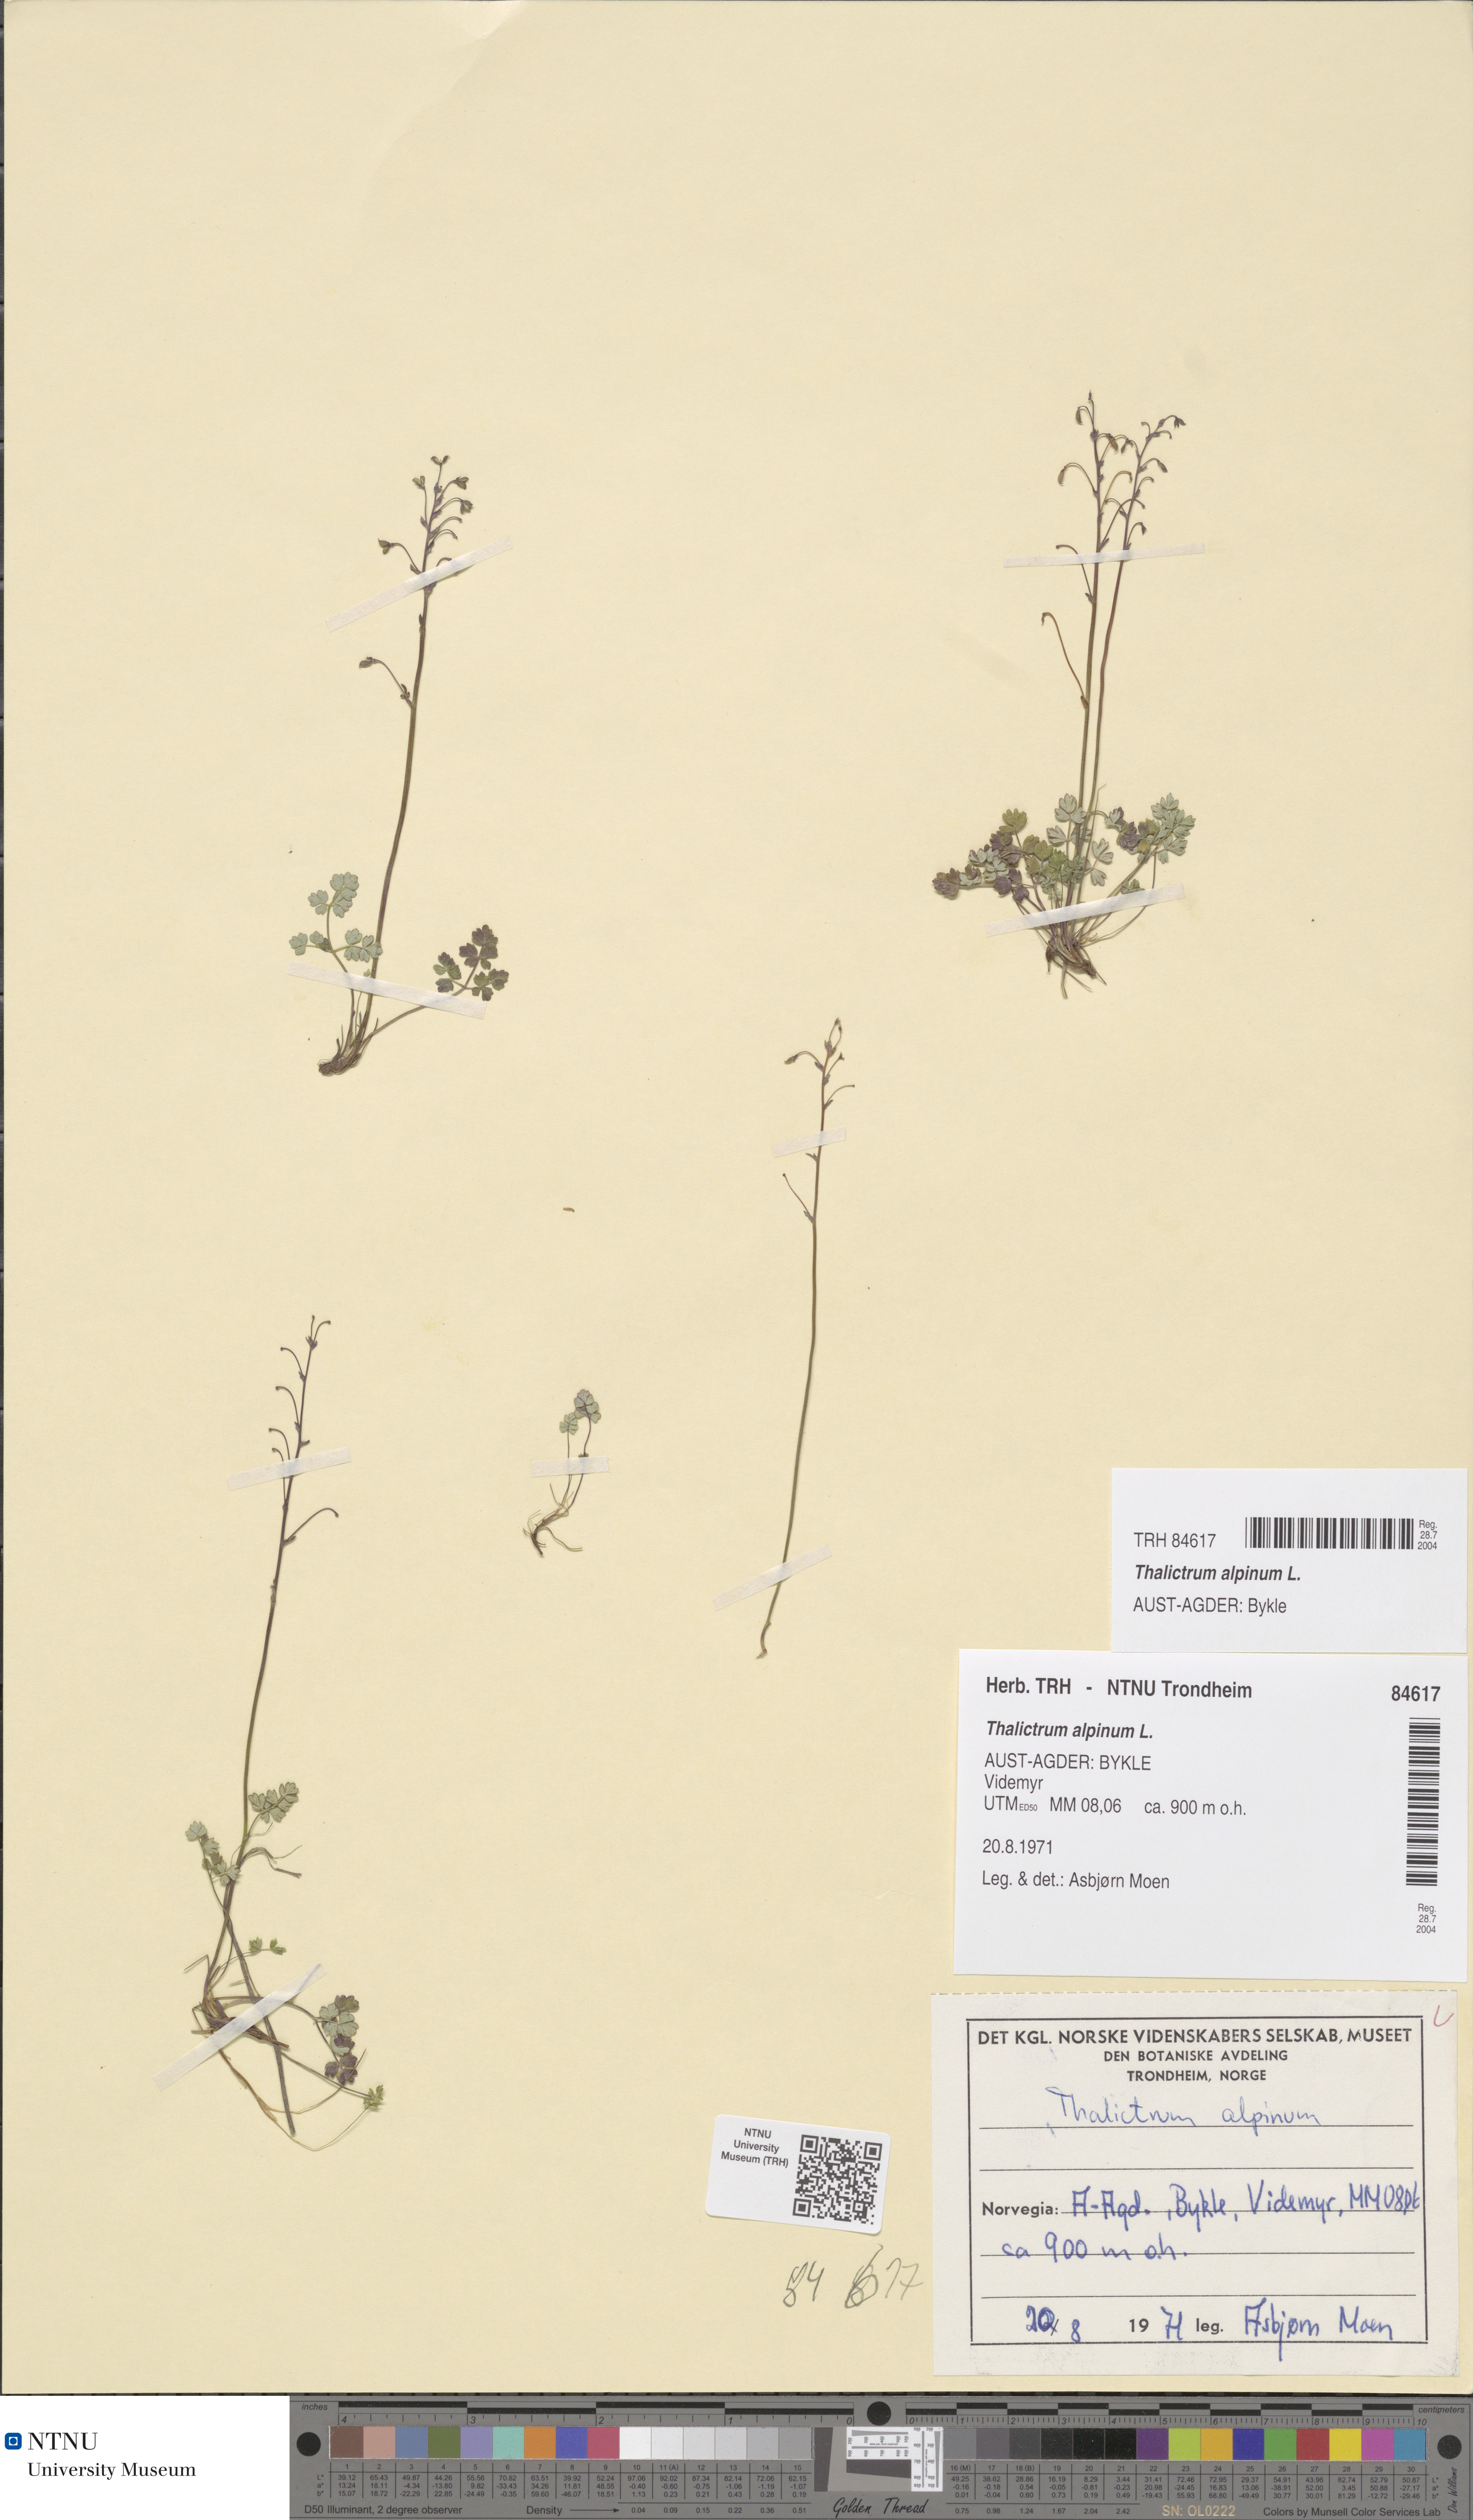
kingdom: Plantae
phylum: Tracheophyta
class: Magnoliopsida
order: Ranunculales
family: Ranunculaceae
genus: Thalictrum
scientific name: Thalictrum alpinum
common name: Alpine meadow-rue
